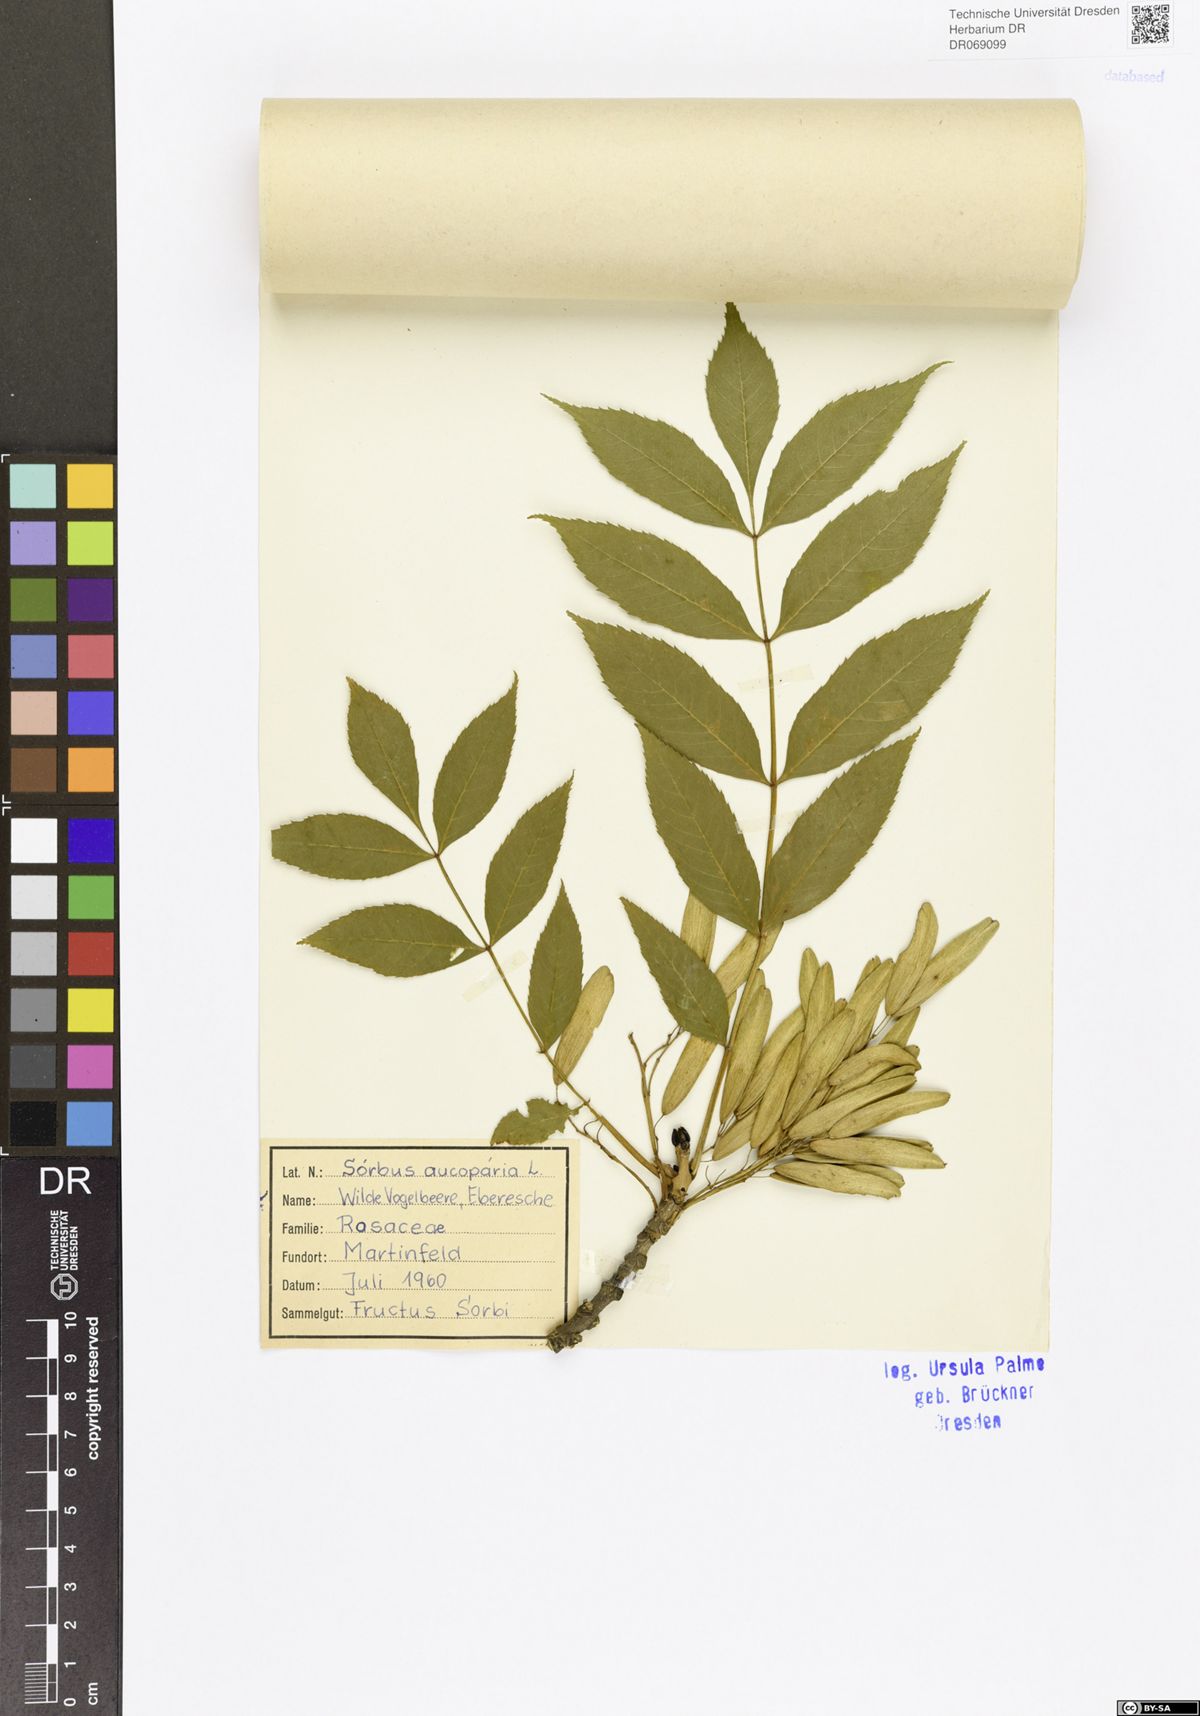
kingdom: Plantae
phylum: Tracheophyta
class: Magnoliopsida
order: Rosales
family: Rosaceae
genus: Sorbus
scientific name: Sorbus aucuparia
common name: Rowan
